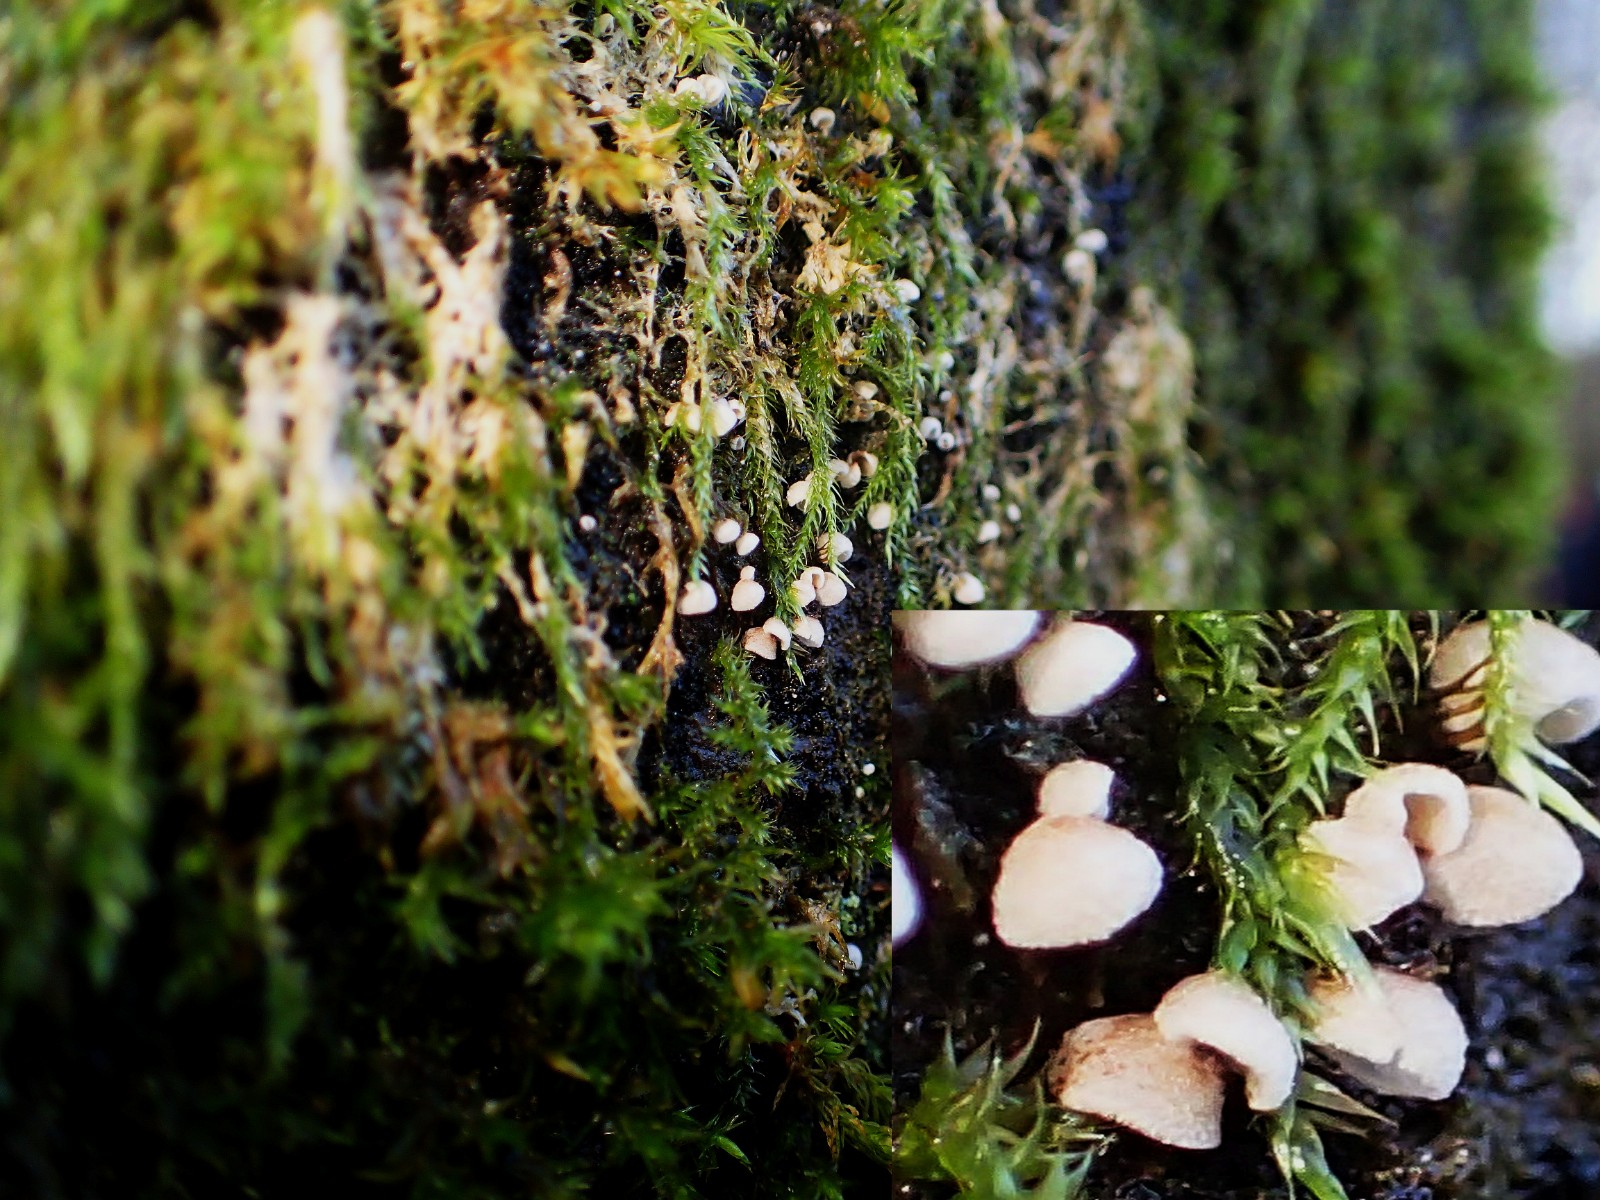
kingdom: Fungi
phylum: Basidiomycota
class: Agaricomycetes
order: Agaricales
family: Chromocyphellaceae
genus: Chromocyphella
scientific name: Chromocyphella muscicola
